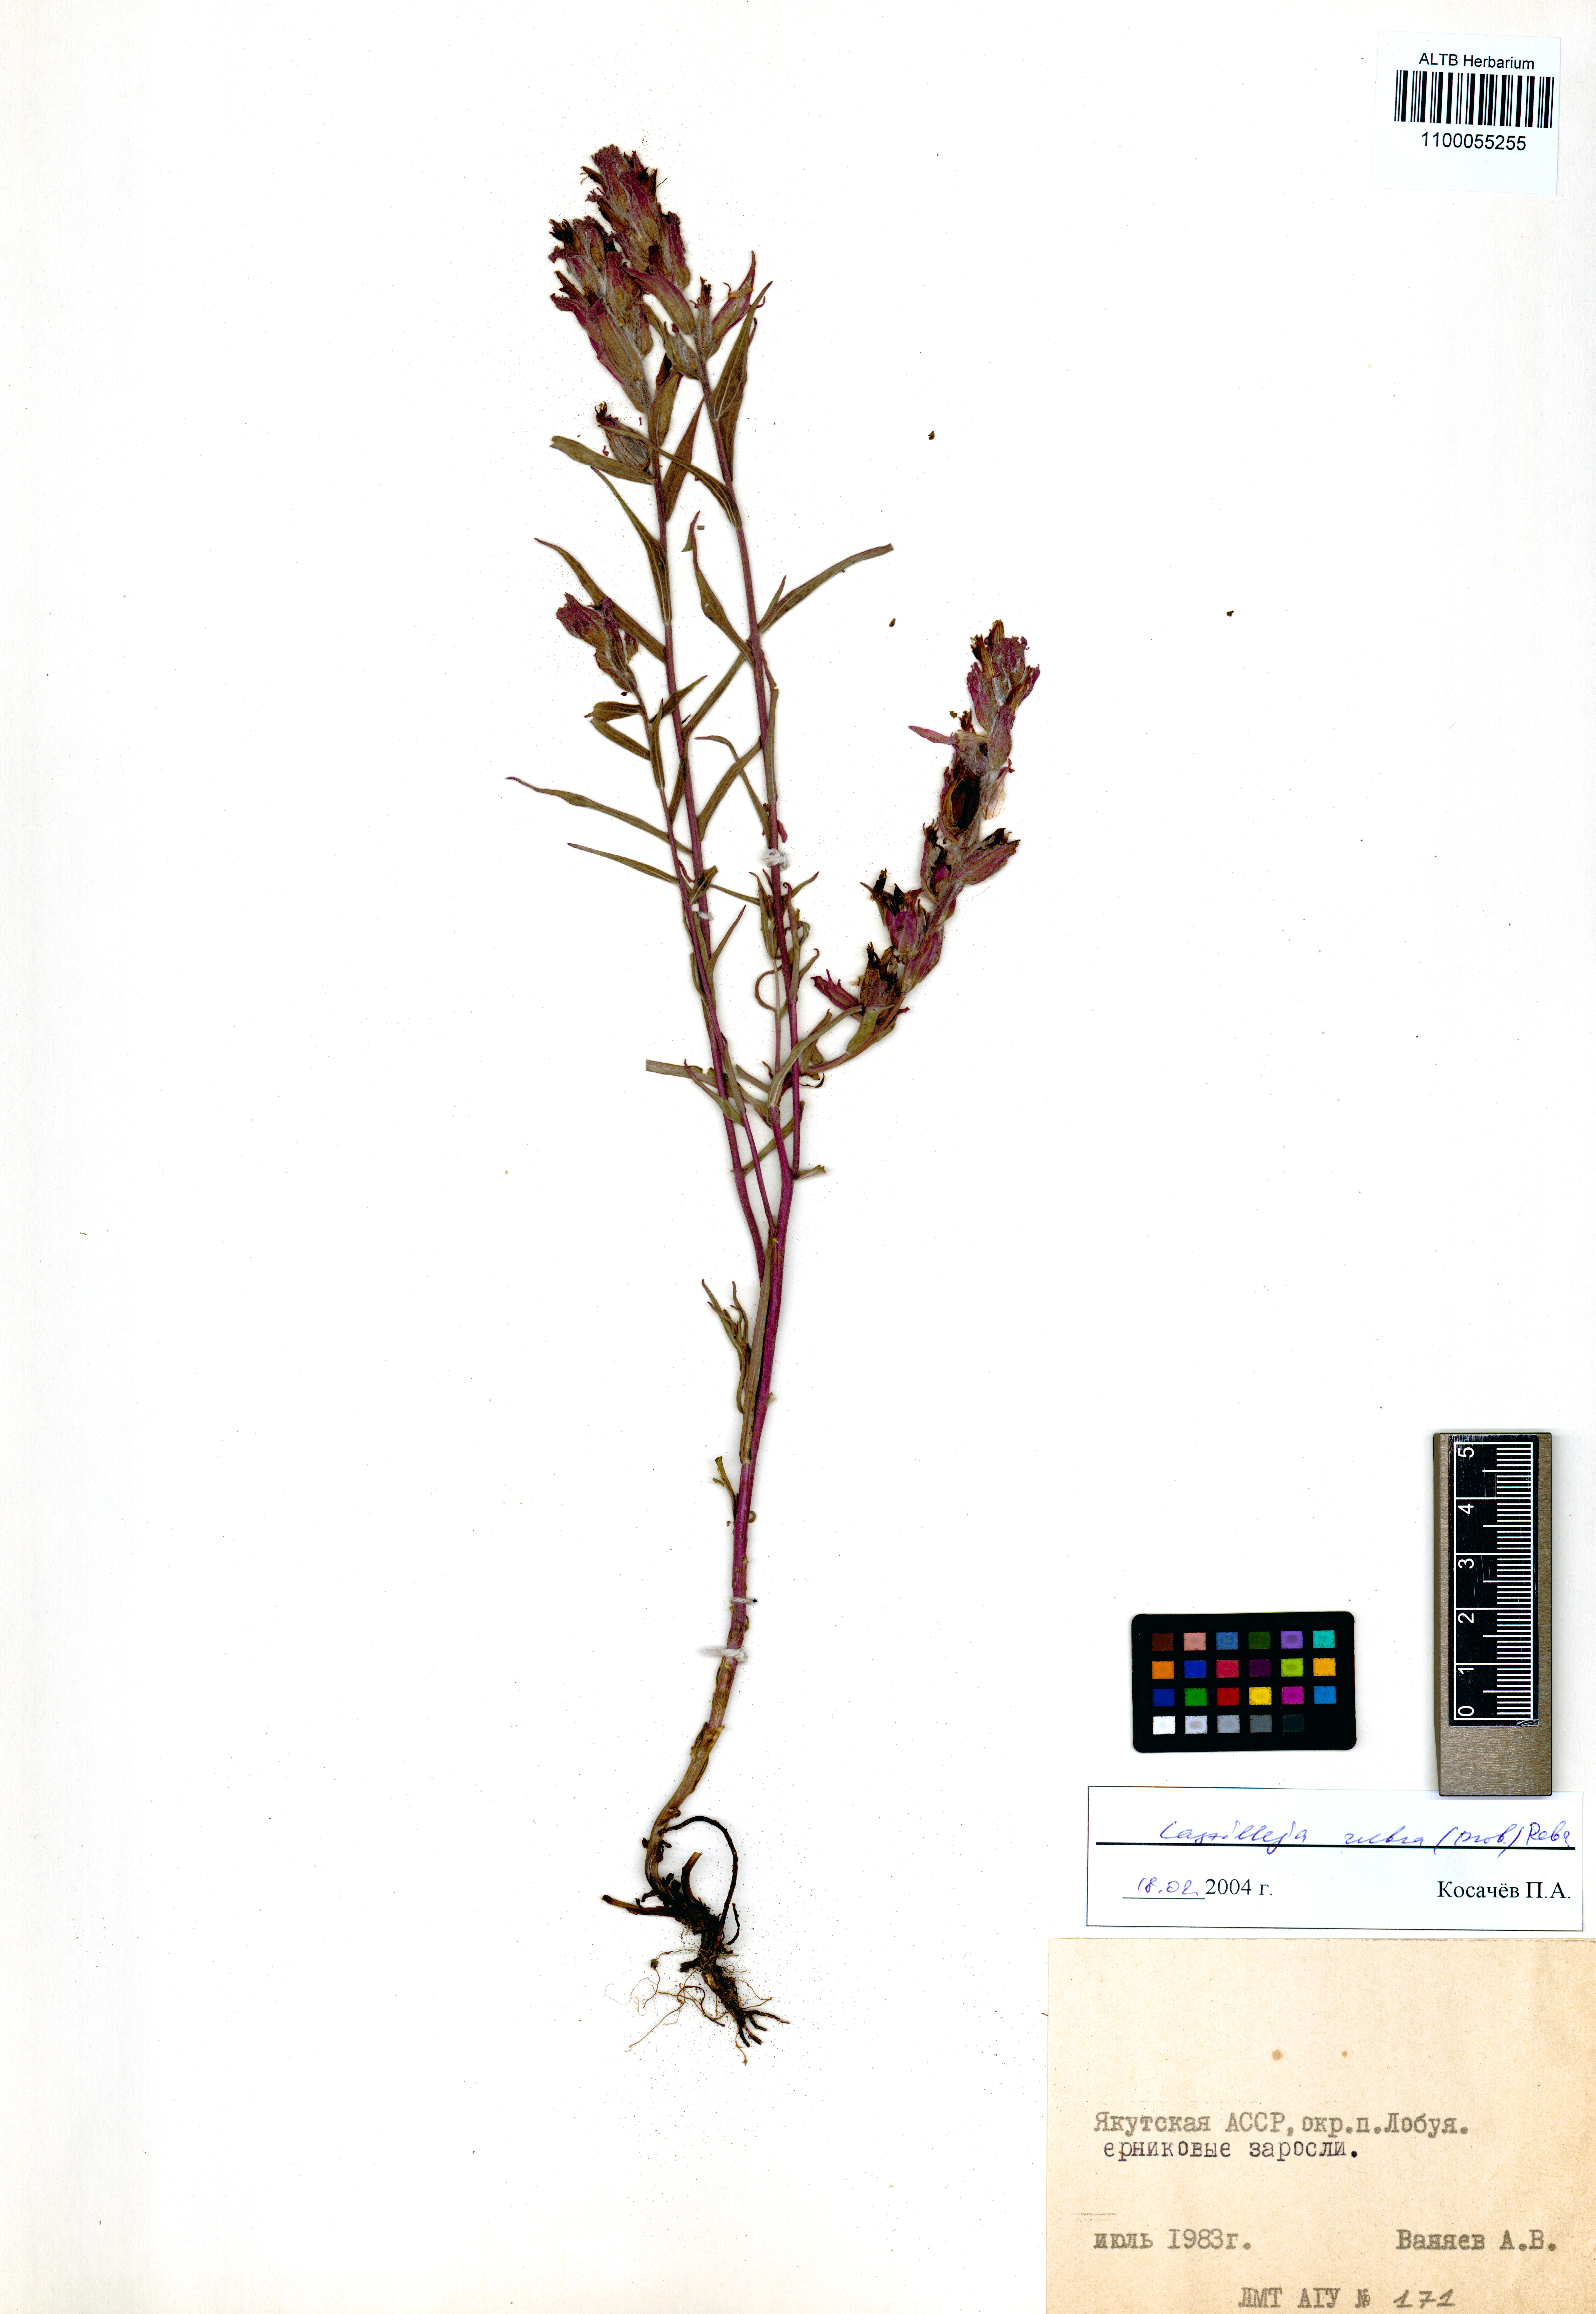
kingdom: Plantae
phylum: Tracheophyta
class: Magnoliopsida
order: Lamiales
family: Orobanchaceae
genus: Castilleja
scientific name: Castilleja rubra
